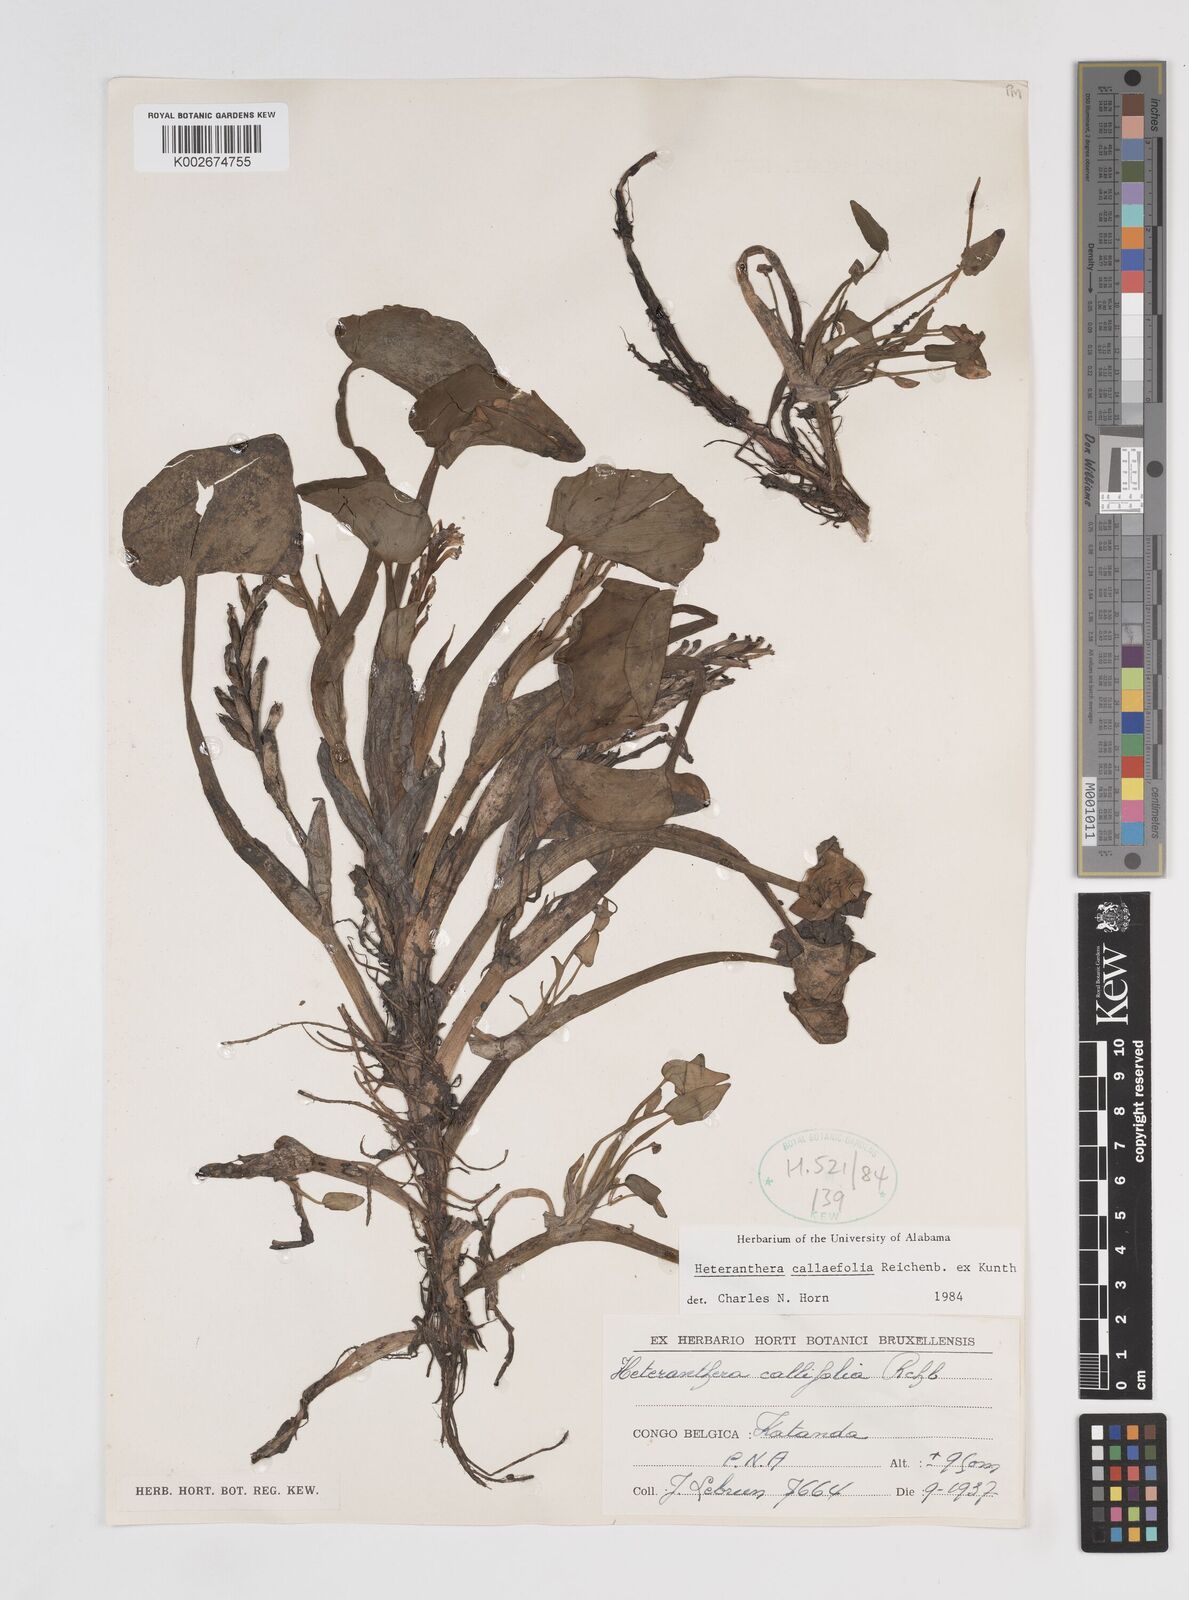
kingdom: Plantae
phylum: Tracheophyta
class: Liliopsida
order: Commelinales
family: Pontederiaceae
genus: Heteranthera
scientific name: Heteranthera callifolia
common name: Mud plantain
